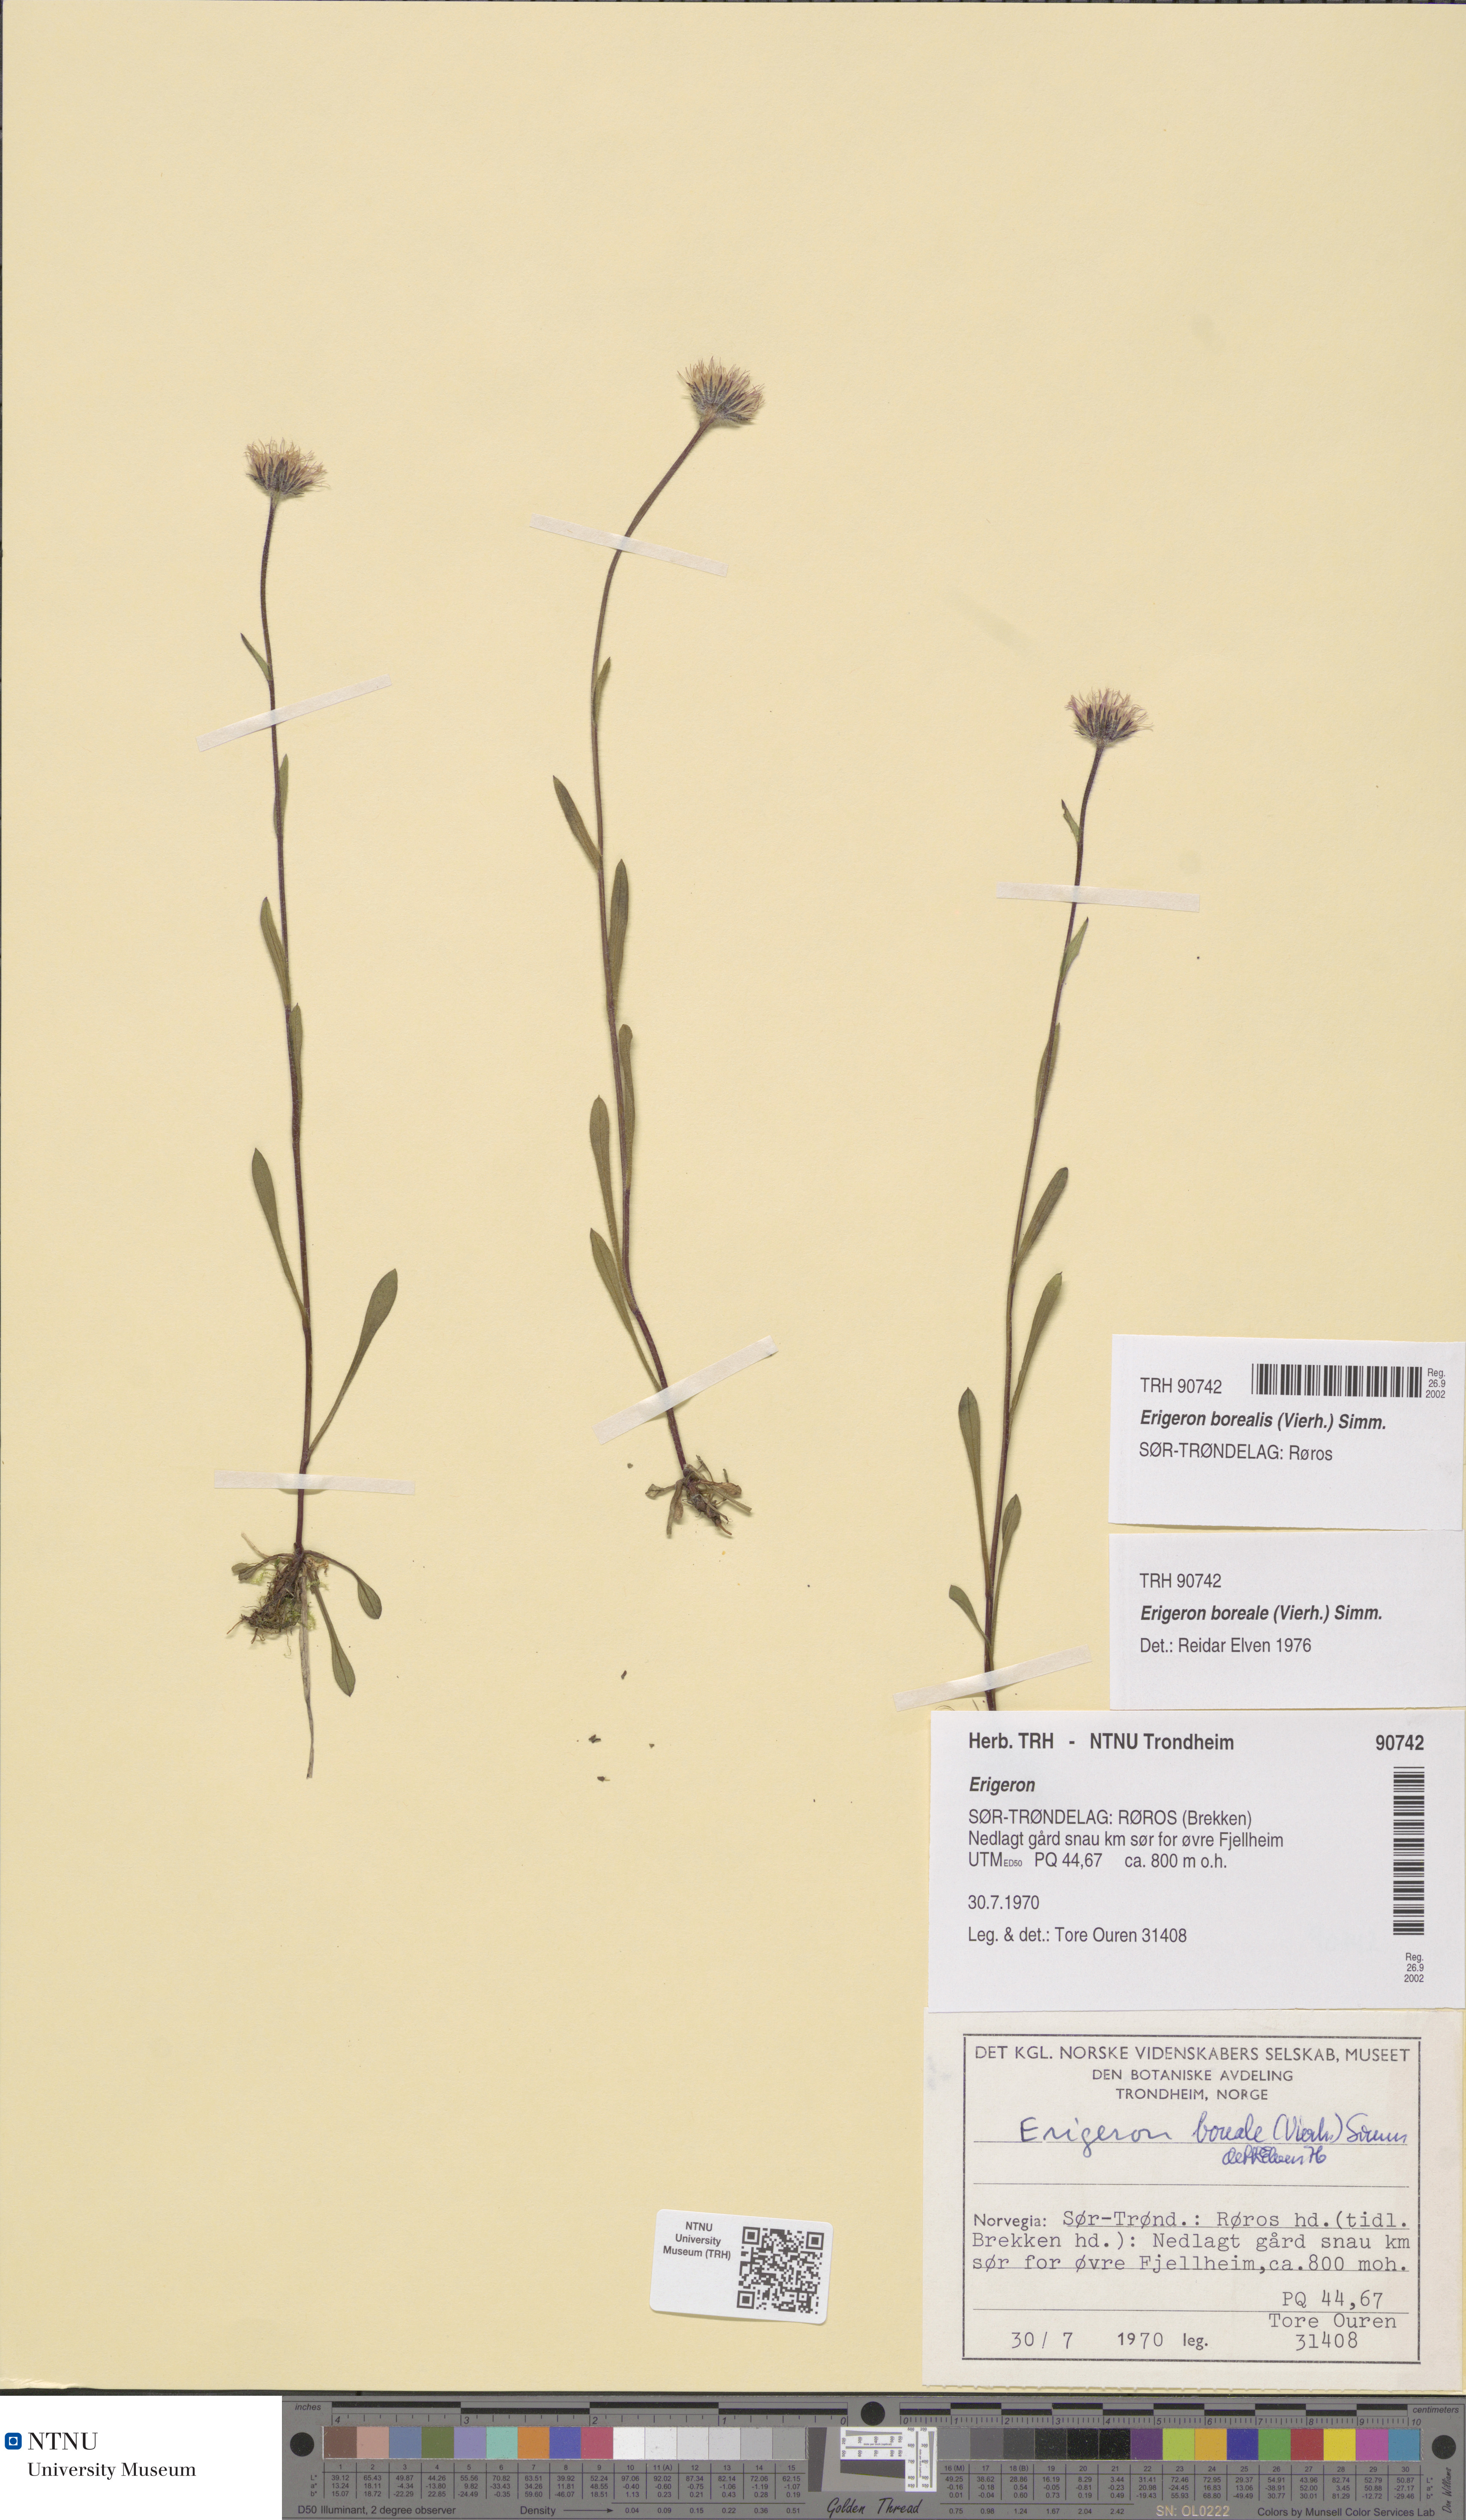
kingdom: Plantae
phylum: Tracheophyta
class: Magnoliopsida
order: Asterales
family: Asteraceae
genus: Erigeron
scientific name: Erigeron borealis
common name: Alpine fleabane
